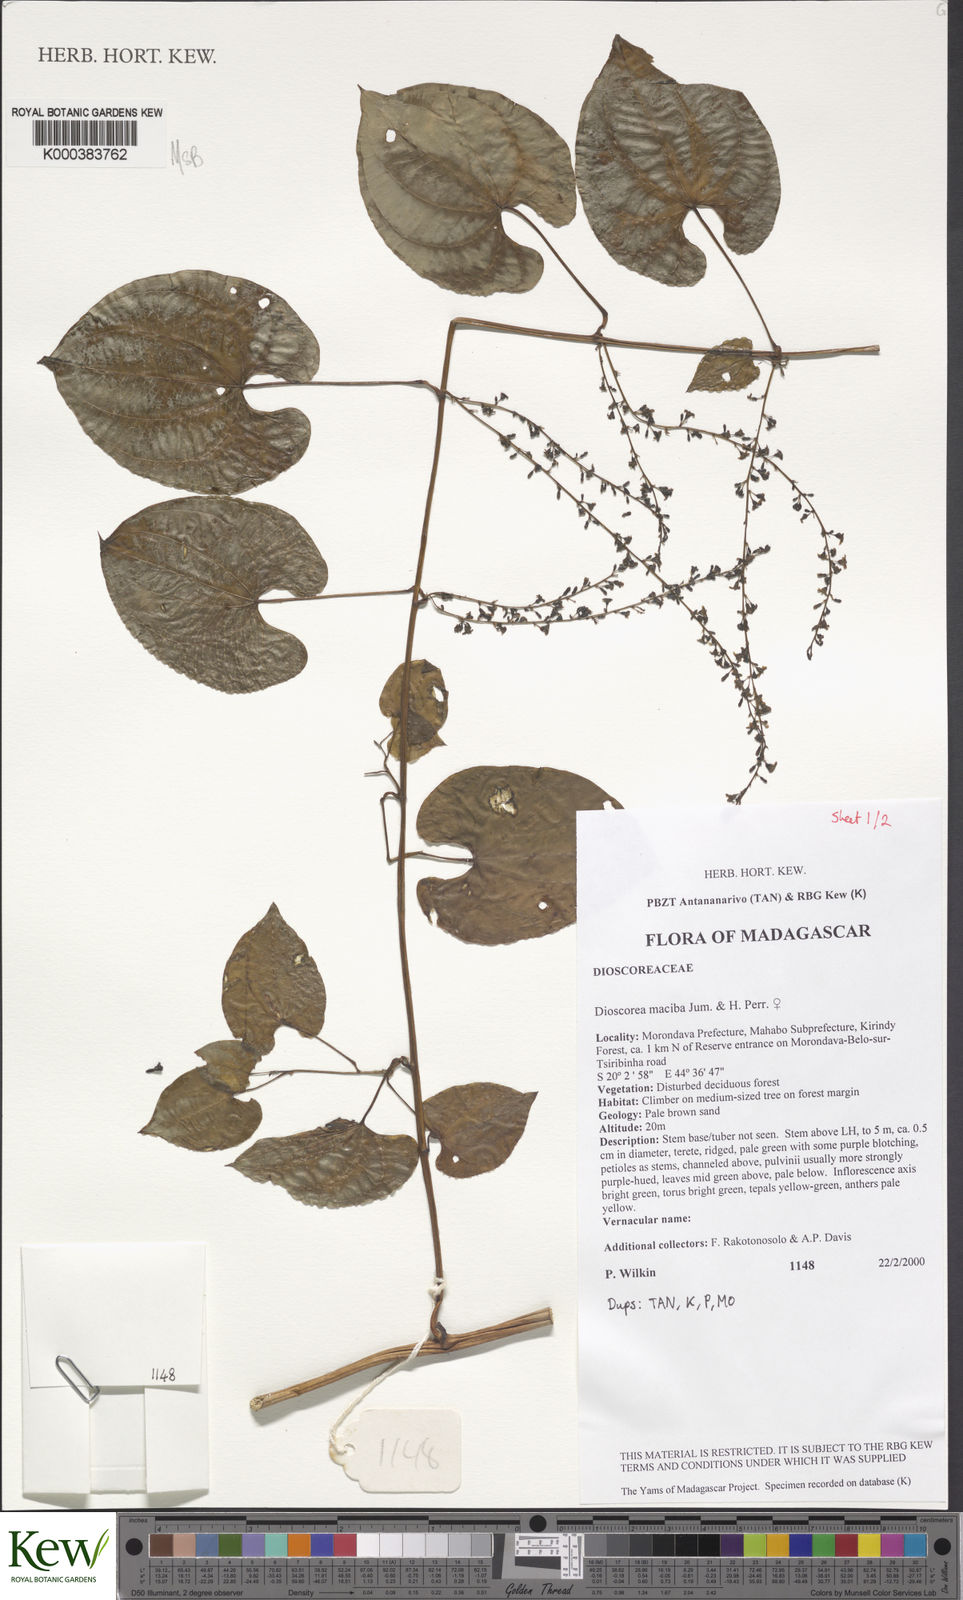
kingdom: Plantae
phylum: Tracheophyta
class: Liliopsida
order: Dioscoreales
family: Dioscoreaceae
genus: Dioscorea
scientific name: Dioscorea
